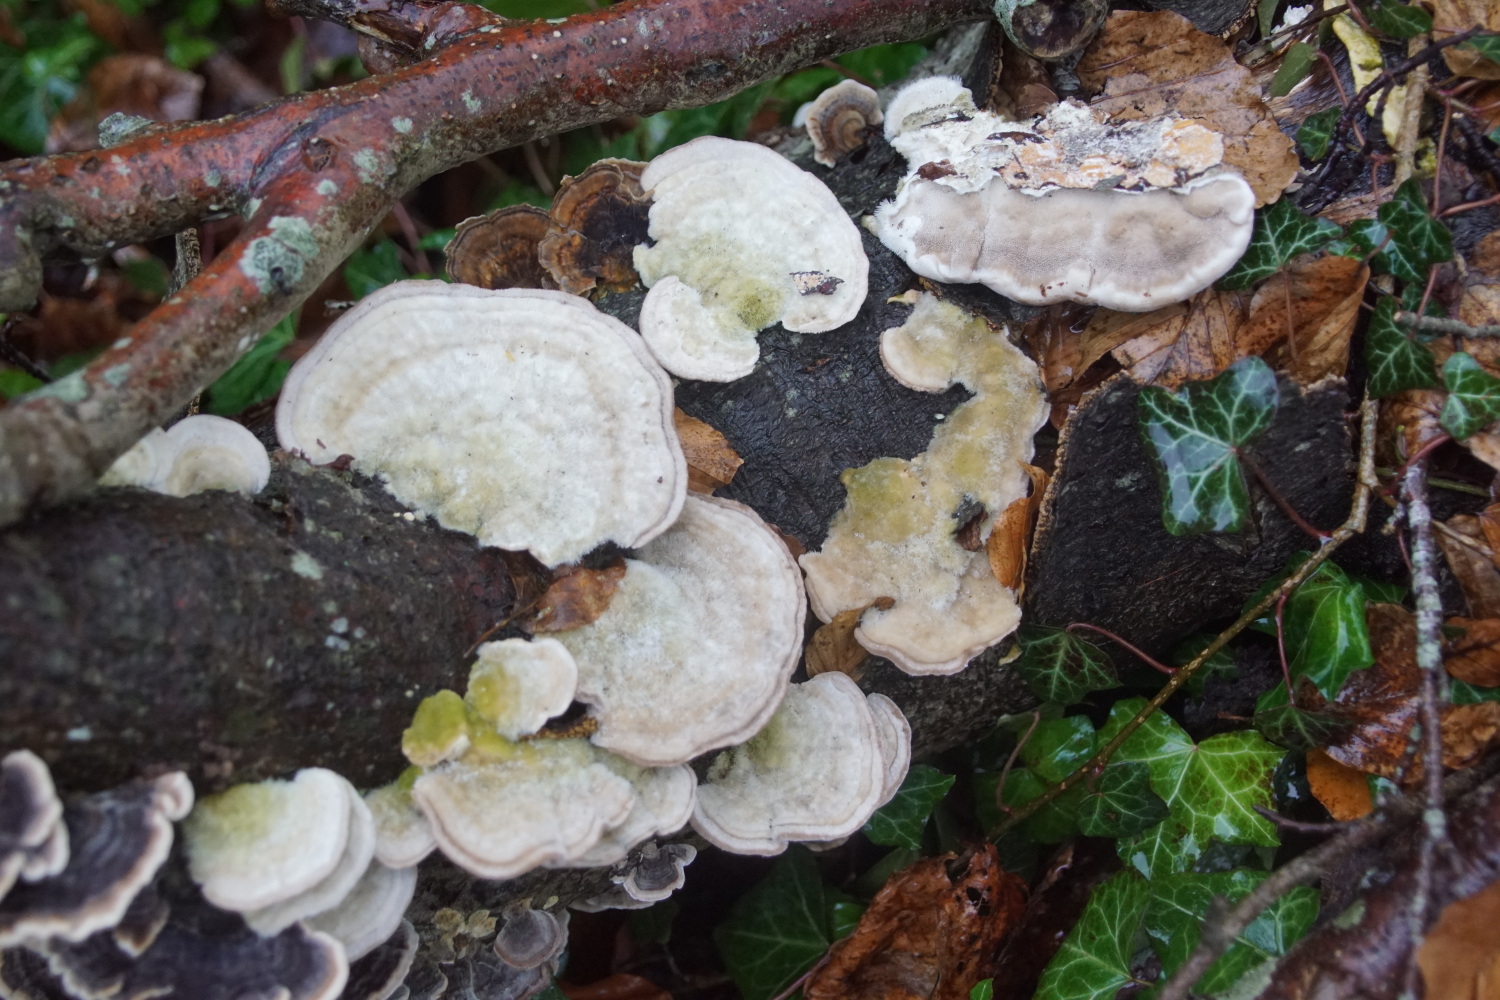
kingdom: Fungi
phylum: Basidiomycota
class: Agaricomycetes
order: Polyporales
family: Polyporaceae
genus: Trametes
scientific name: Trametes hirsuta
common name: håret læderporesvamp
